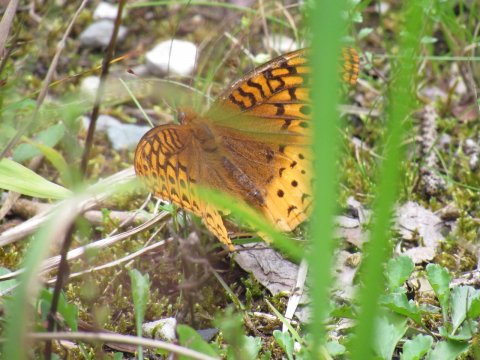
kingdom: Animalia
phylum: Arthropoda
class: Insecta
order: Lepidoptera
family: Nymphalidae
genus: Speyeria
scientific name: Speyeria cybele
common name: Great Spangled Fritillary
